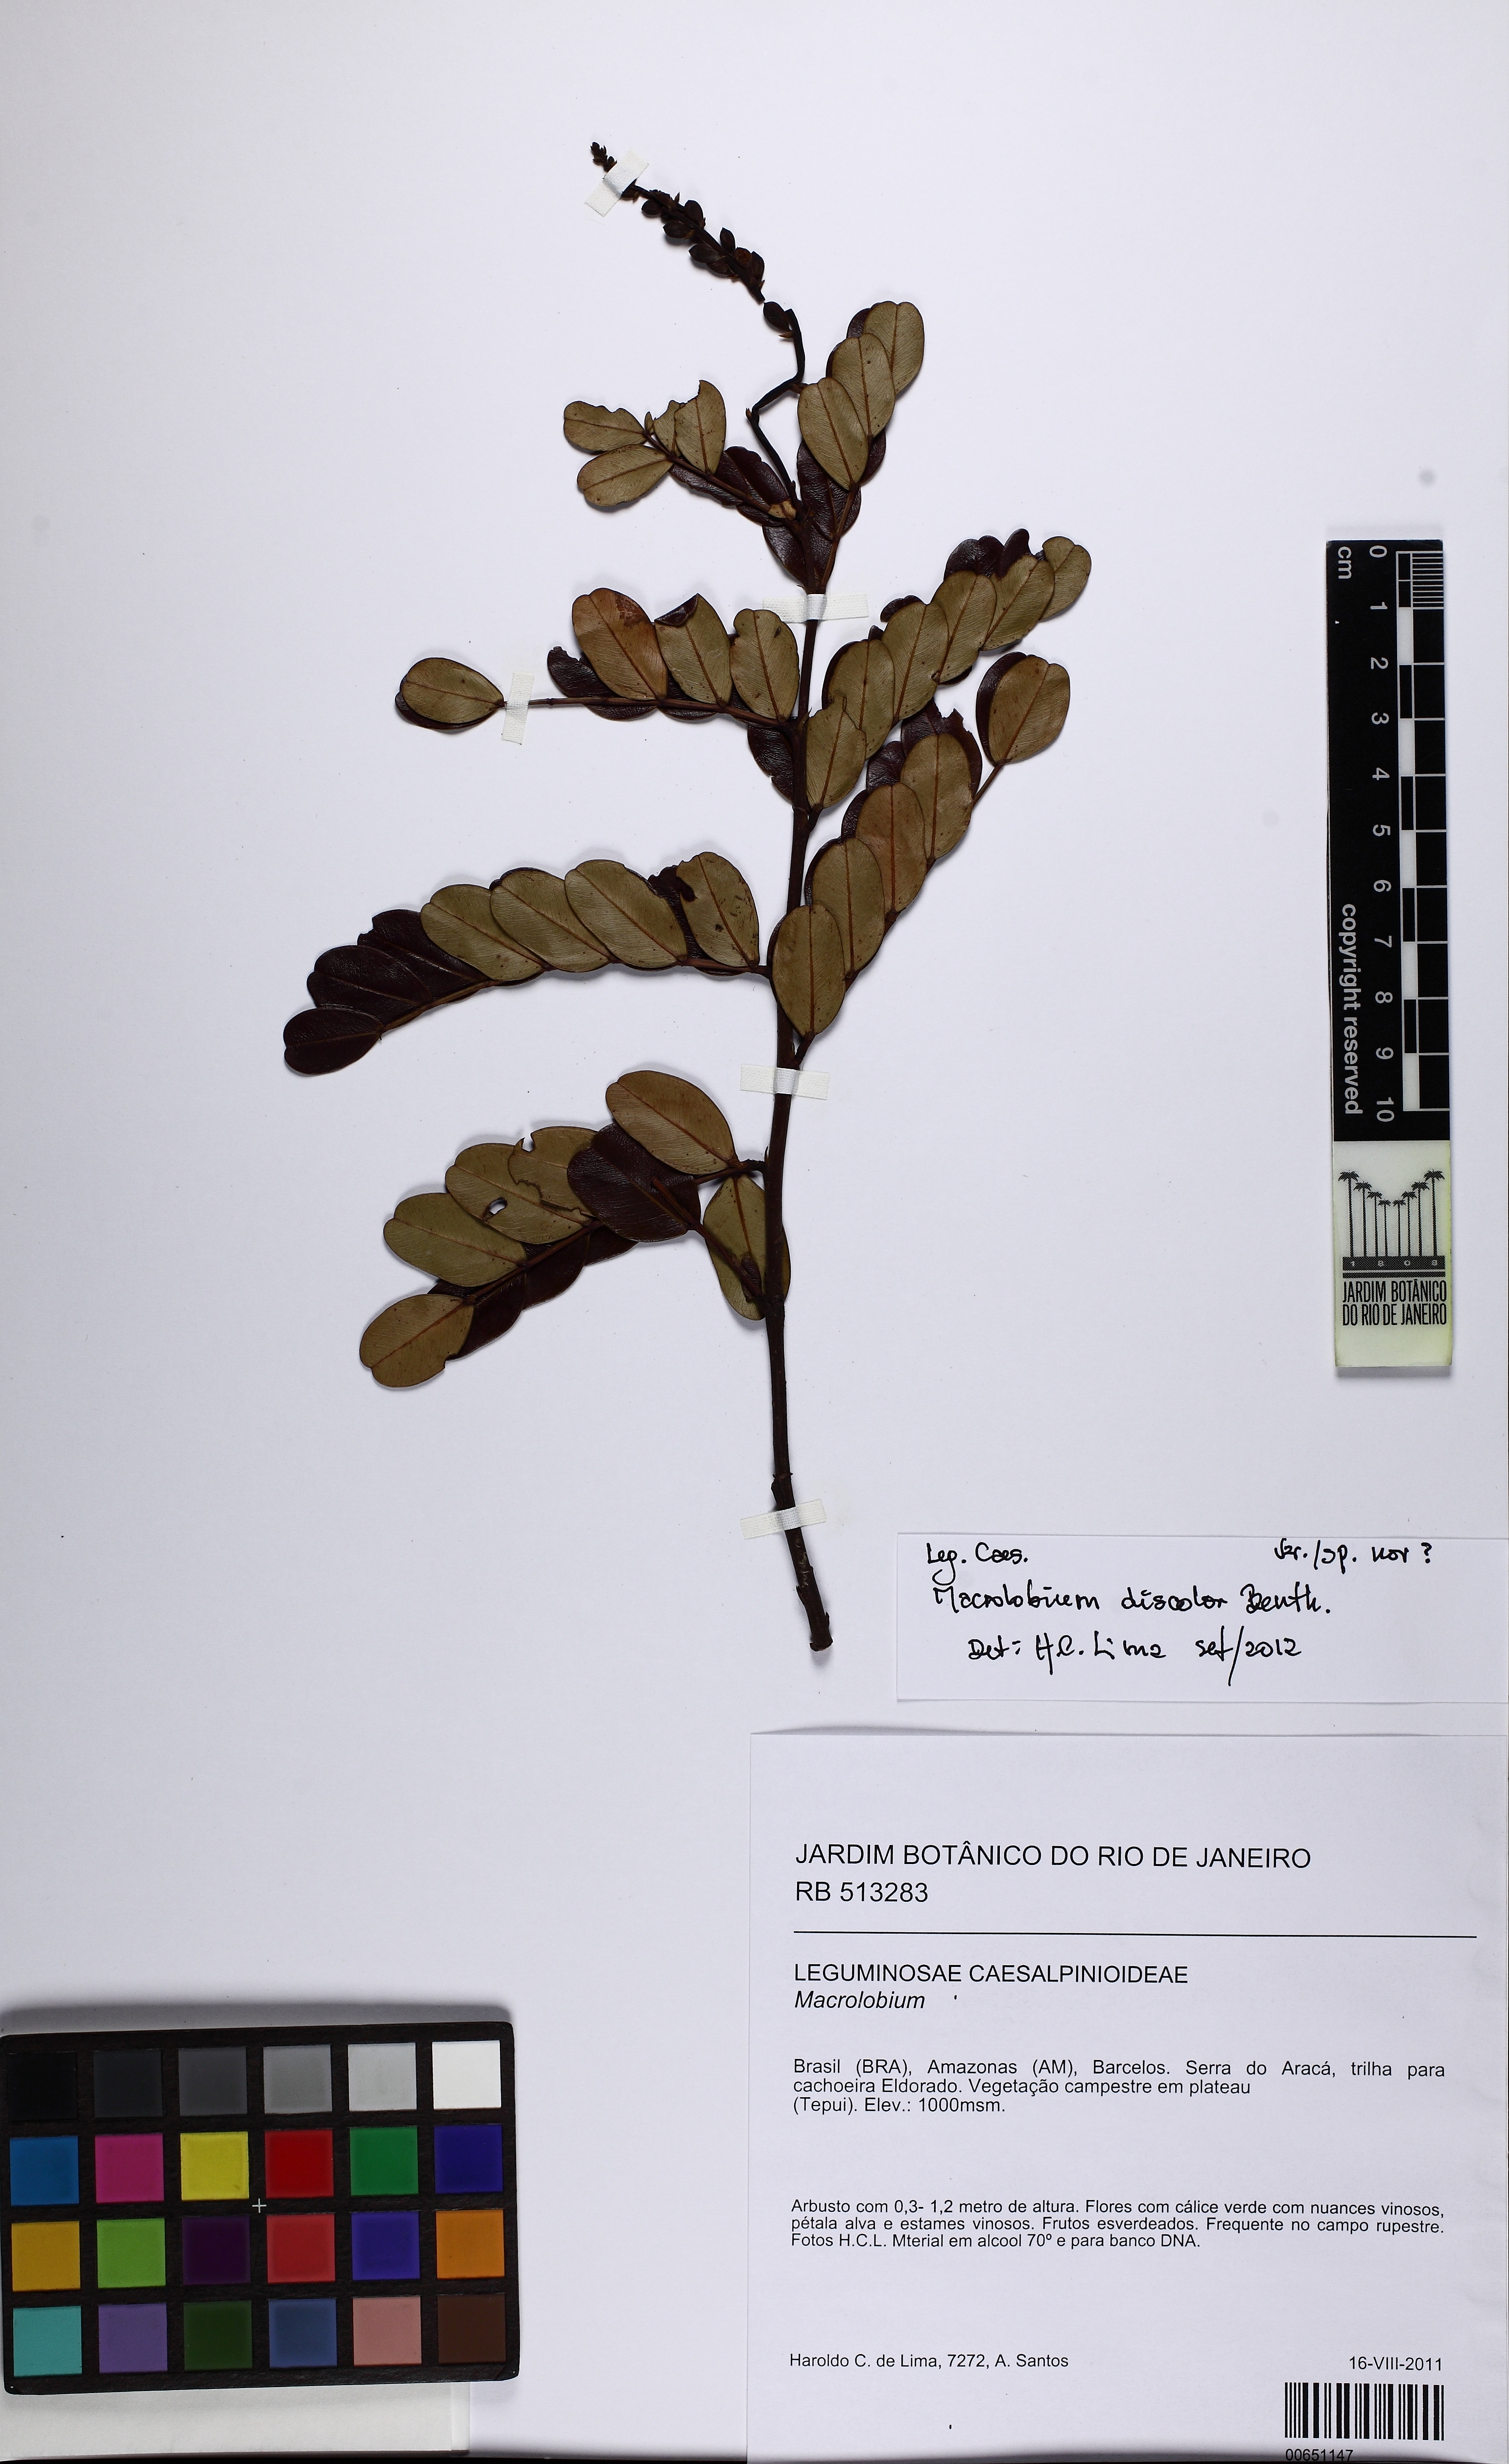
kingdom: Plantae
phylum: Tracheophyta
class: Magnoliopsida
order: Fabales
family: Fabaceae
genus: Macrolobium
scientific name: Macrolobium discolor
